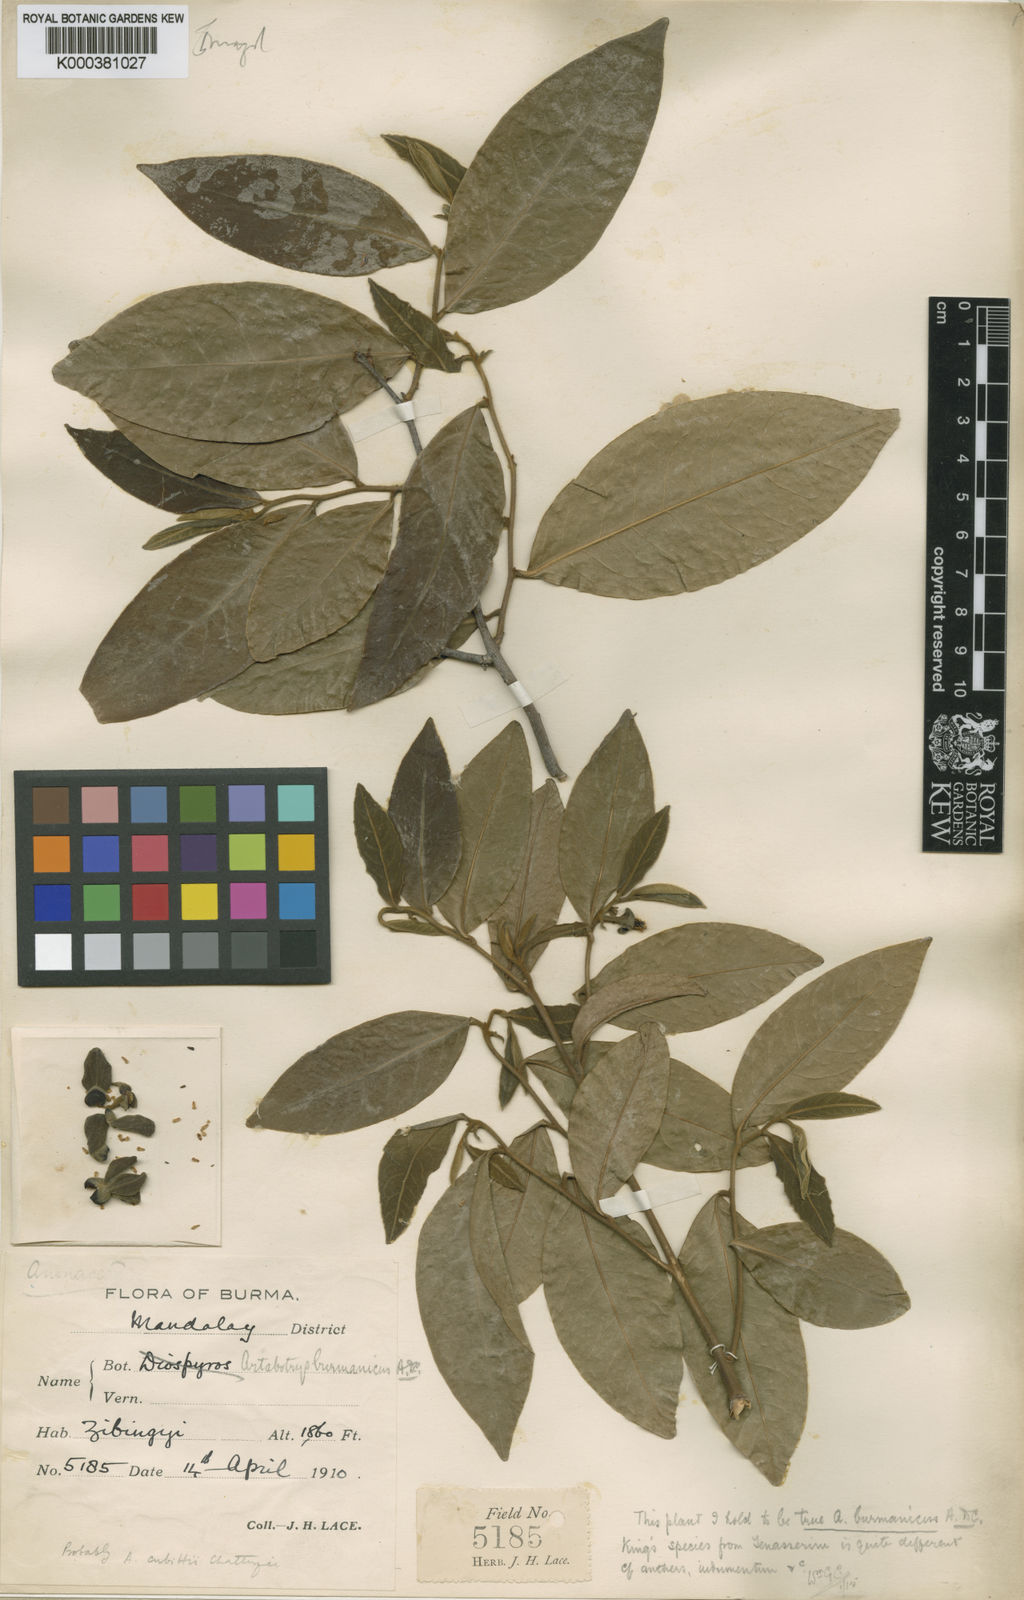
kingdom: Plantae
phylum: Tracheophyta
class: Magnoliopsida
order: Magnoliales
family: Annonaceae
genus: Artabotrys
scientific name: Artabotrys burmanicus
